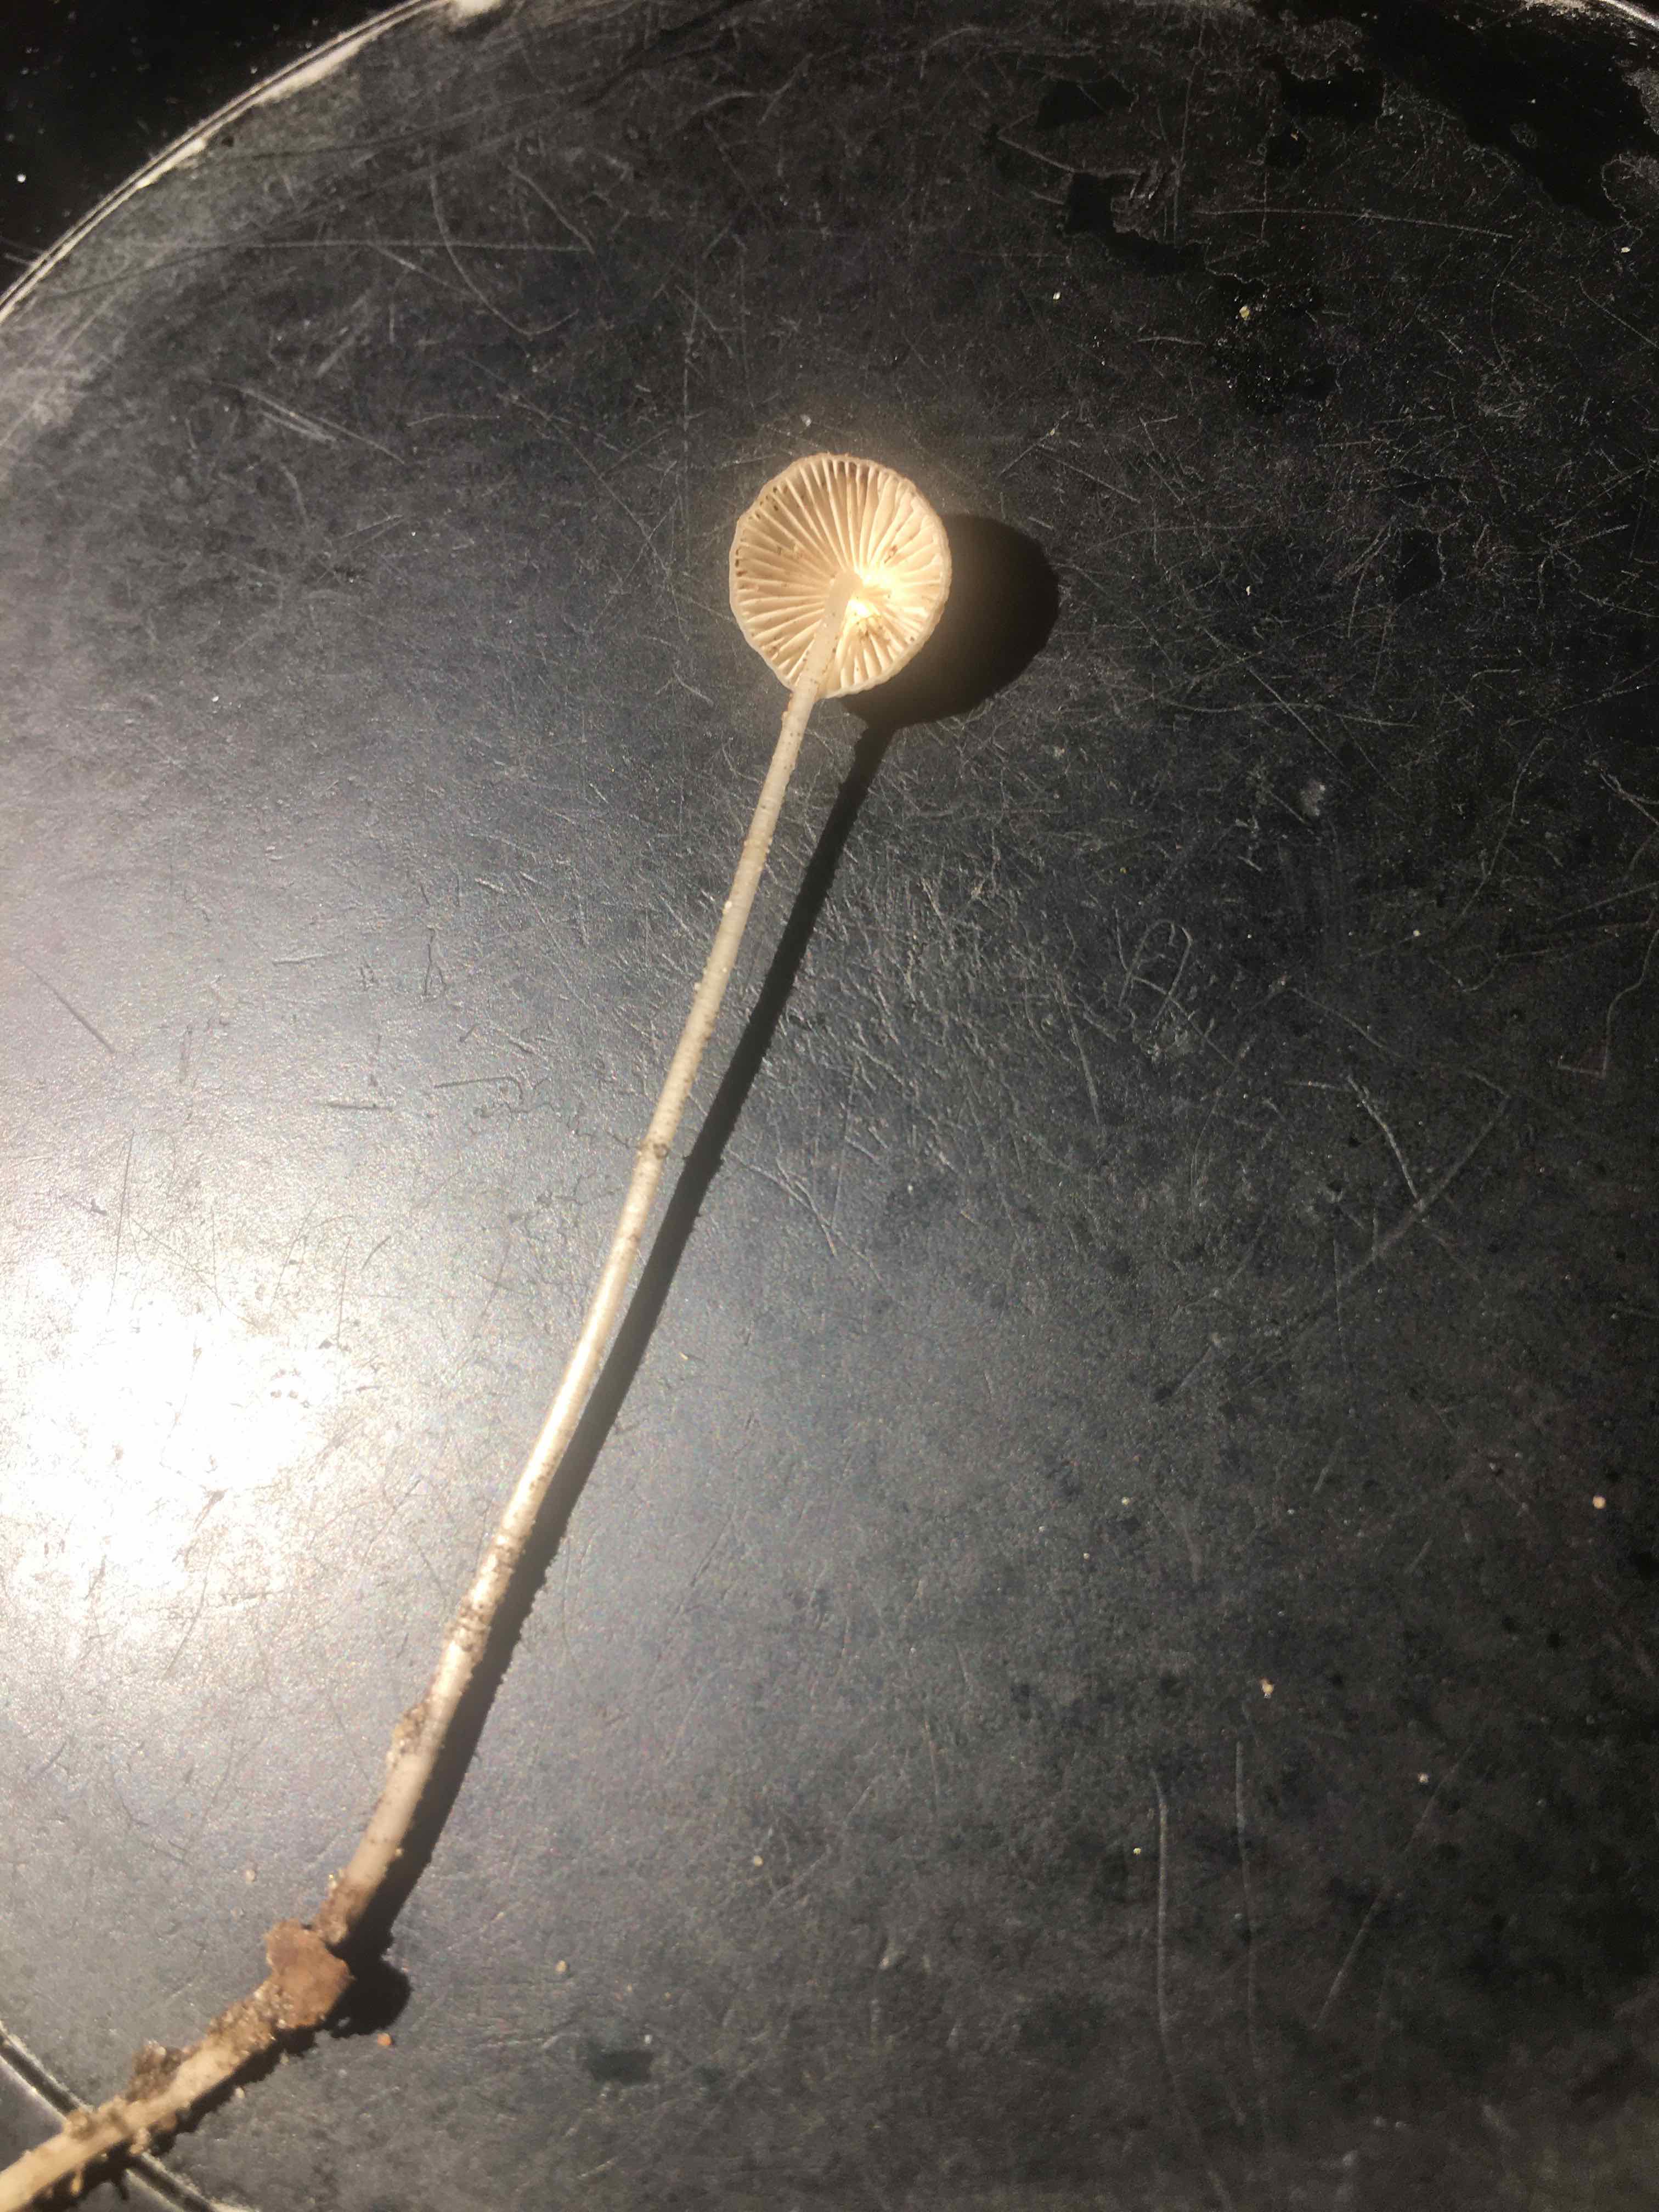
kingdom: Fungi
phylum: Basidiomycota
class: Agaricomycetes
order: Agaricales
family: Mycenaceae
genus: Mycena
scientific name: Mycena vitilis
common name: blankstokket huesvamp
